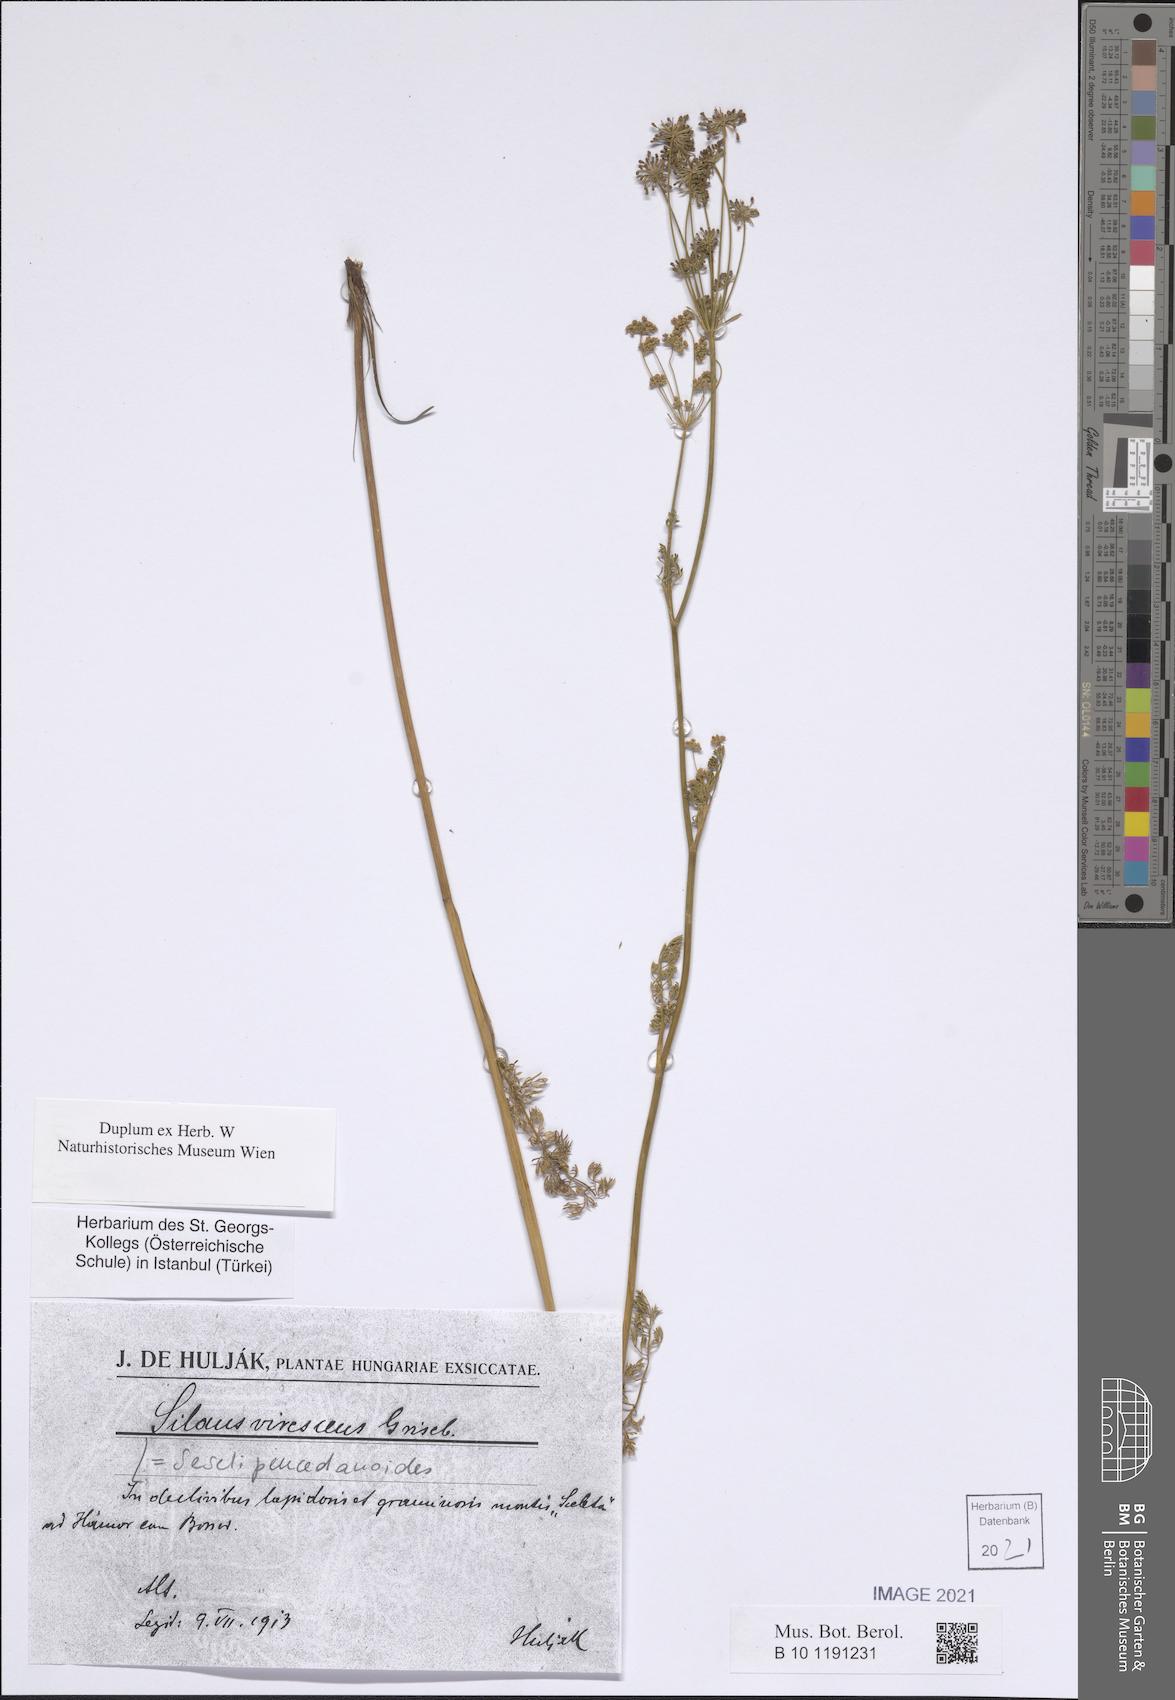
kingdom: Plantae
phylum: Tracheophyta
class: Magnoliopsida
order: Apiales
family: Apiaceae
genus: Gasparinia
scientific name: Gasparinia peucedanoides
